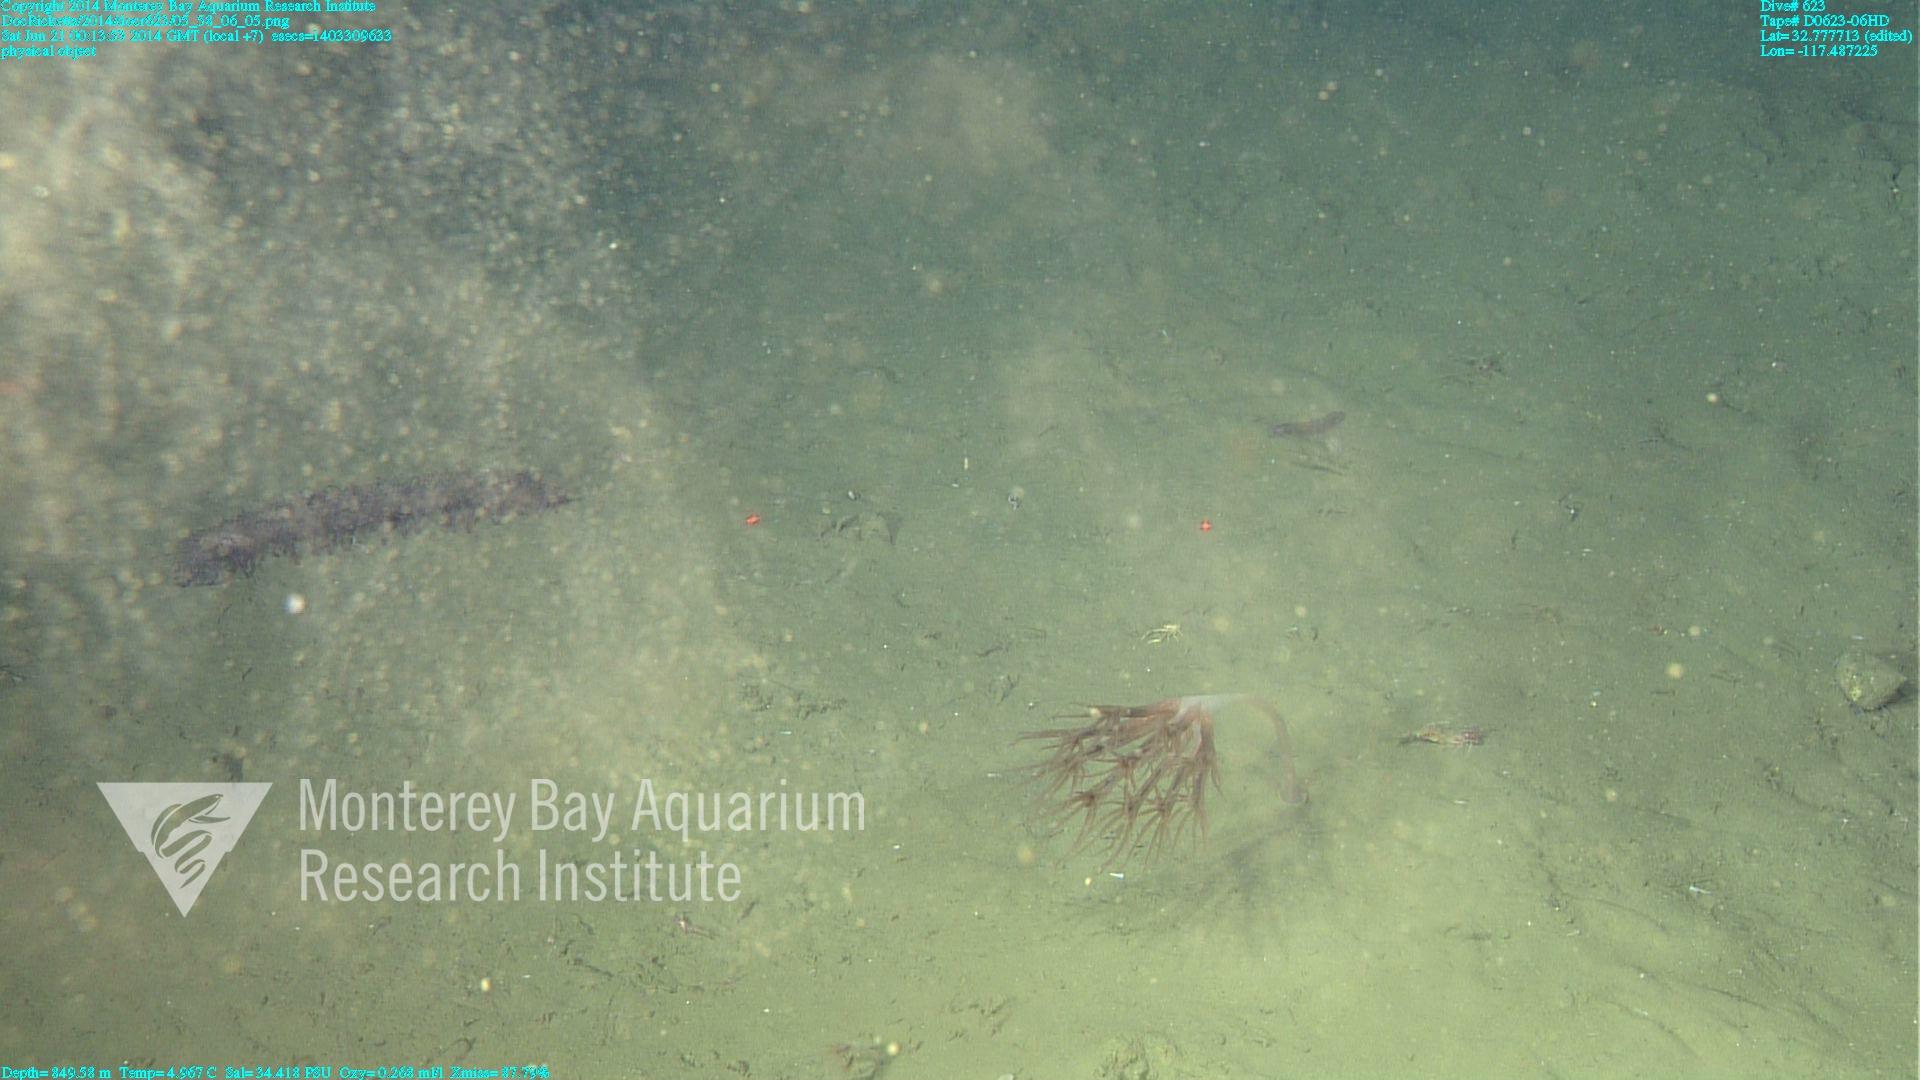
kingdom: Animalia
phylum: Cnidaria
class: Anthozoa
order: Scleralcyonacea
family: Umbellulidae
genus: Umbellula
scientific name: Umbellula lindahli
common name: Lindahl's droopy sea pen
